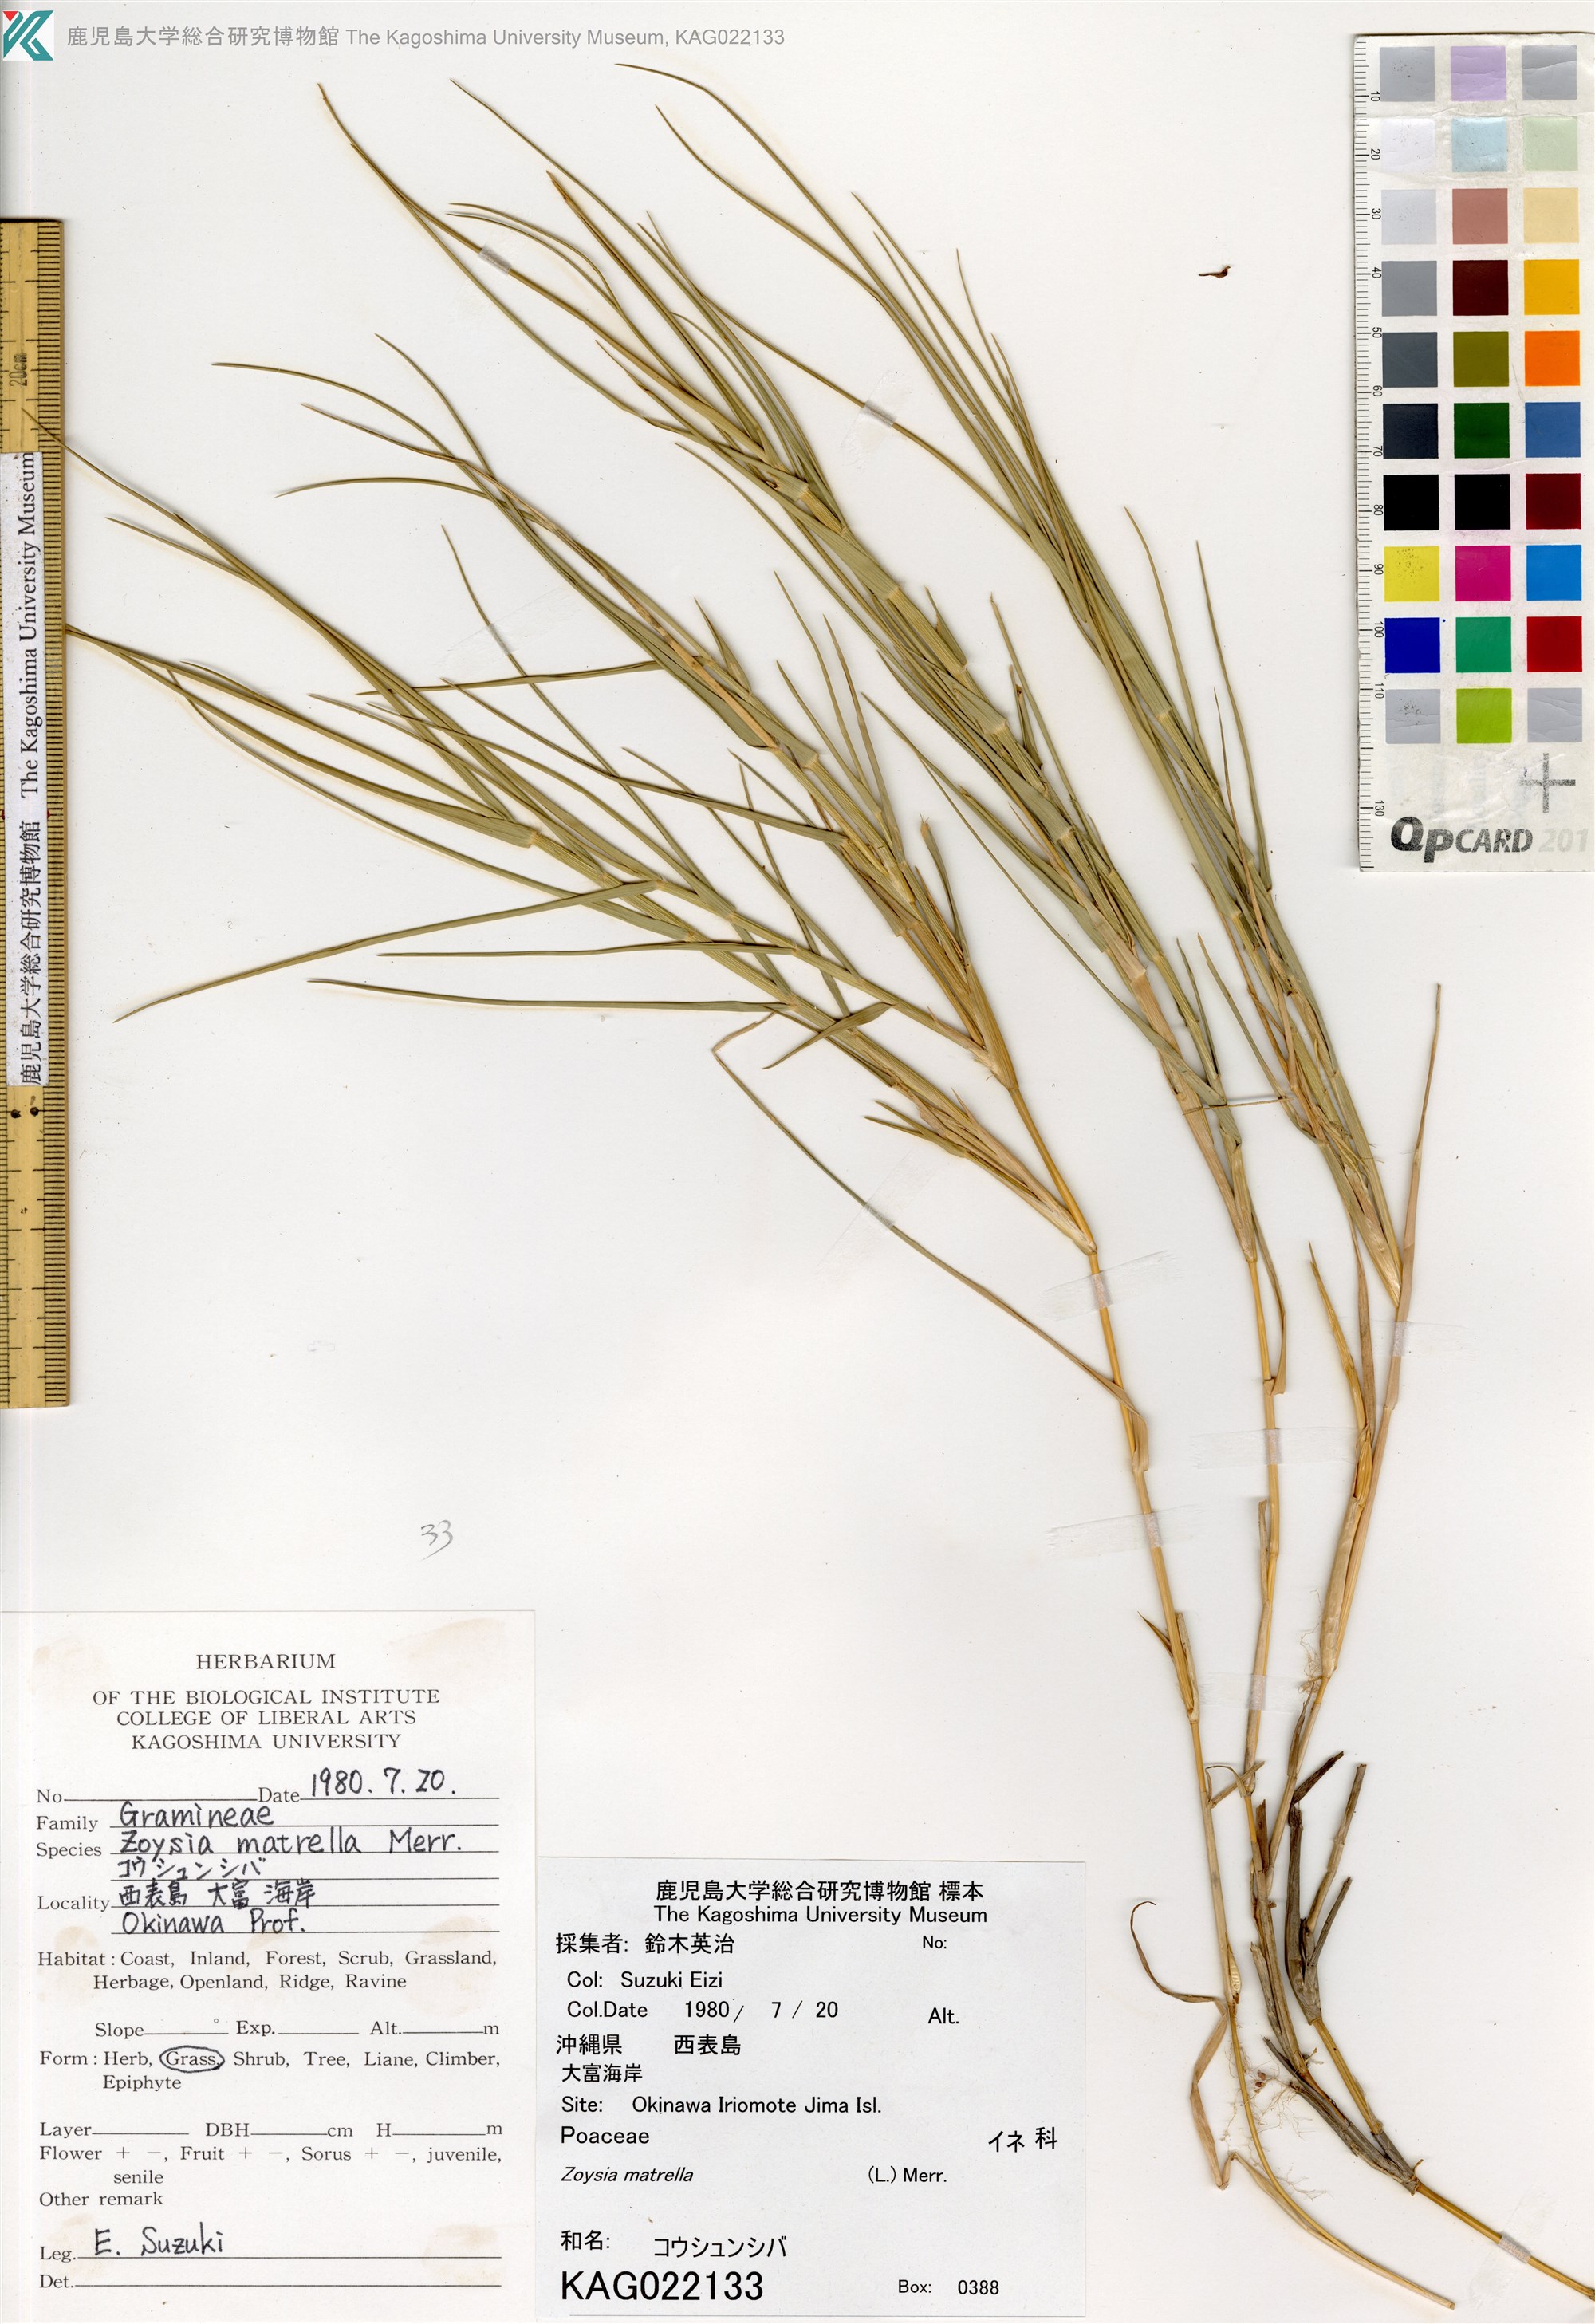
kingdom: Plantae
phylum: Tracheophyta
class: Liliopsida
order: Poales
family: Poaceae
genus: Sporobolus
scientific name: Sporobolus virginicus
